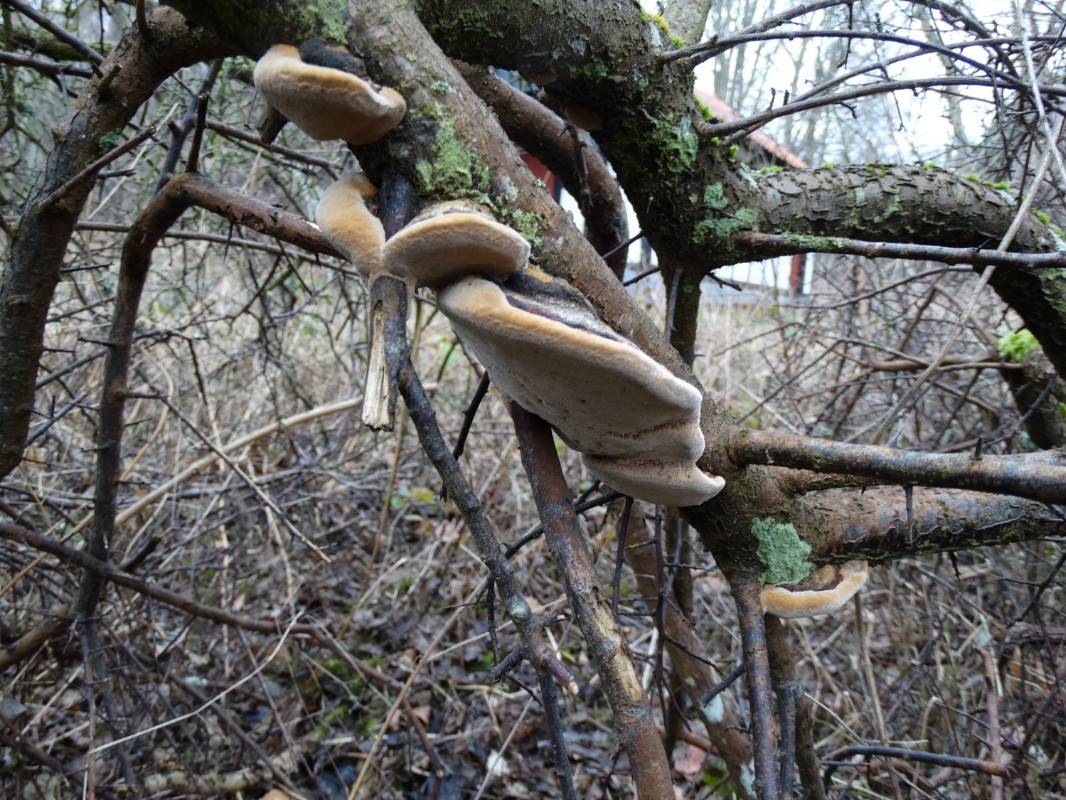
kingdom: Fungi
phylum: Basidiomycota
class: Agaricomycetes
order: Hymenochaetales
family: Hymenochaetaceae
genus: Phellinus
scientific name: Phellinus pomaceus
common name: blomme-ildporesvamp
